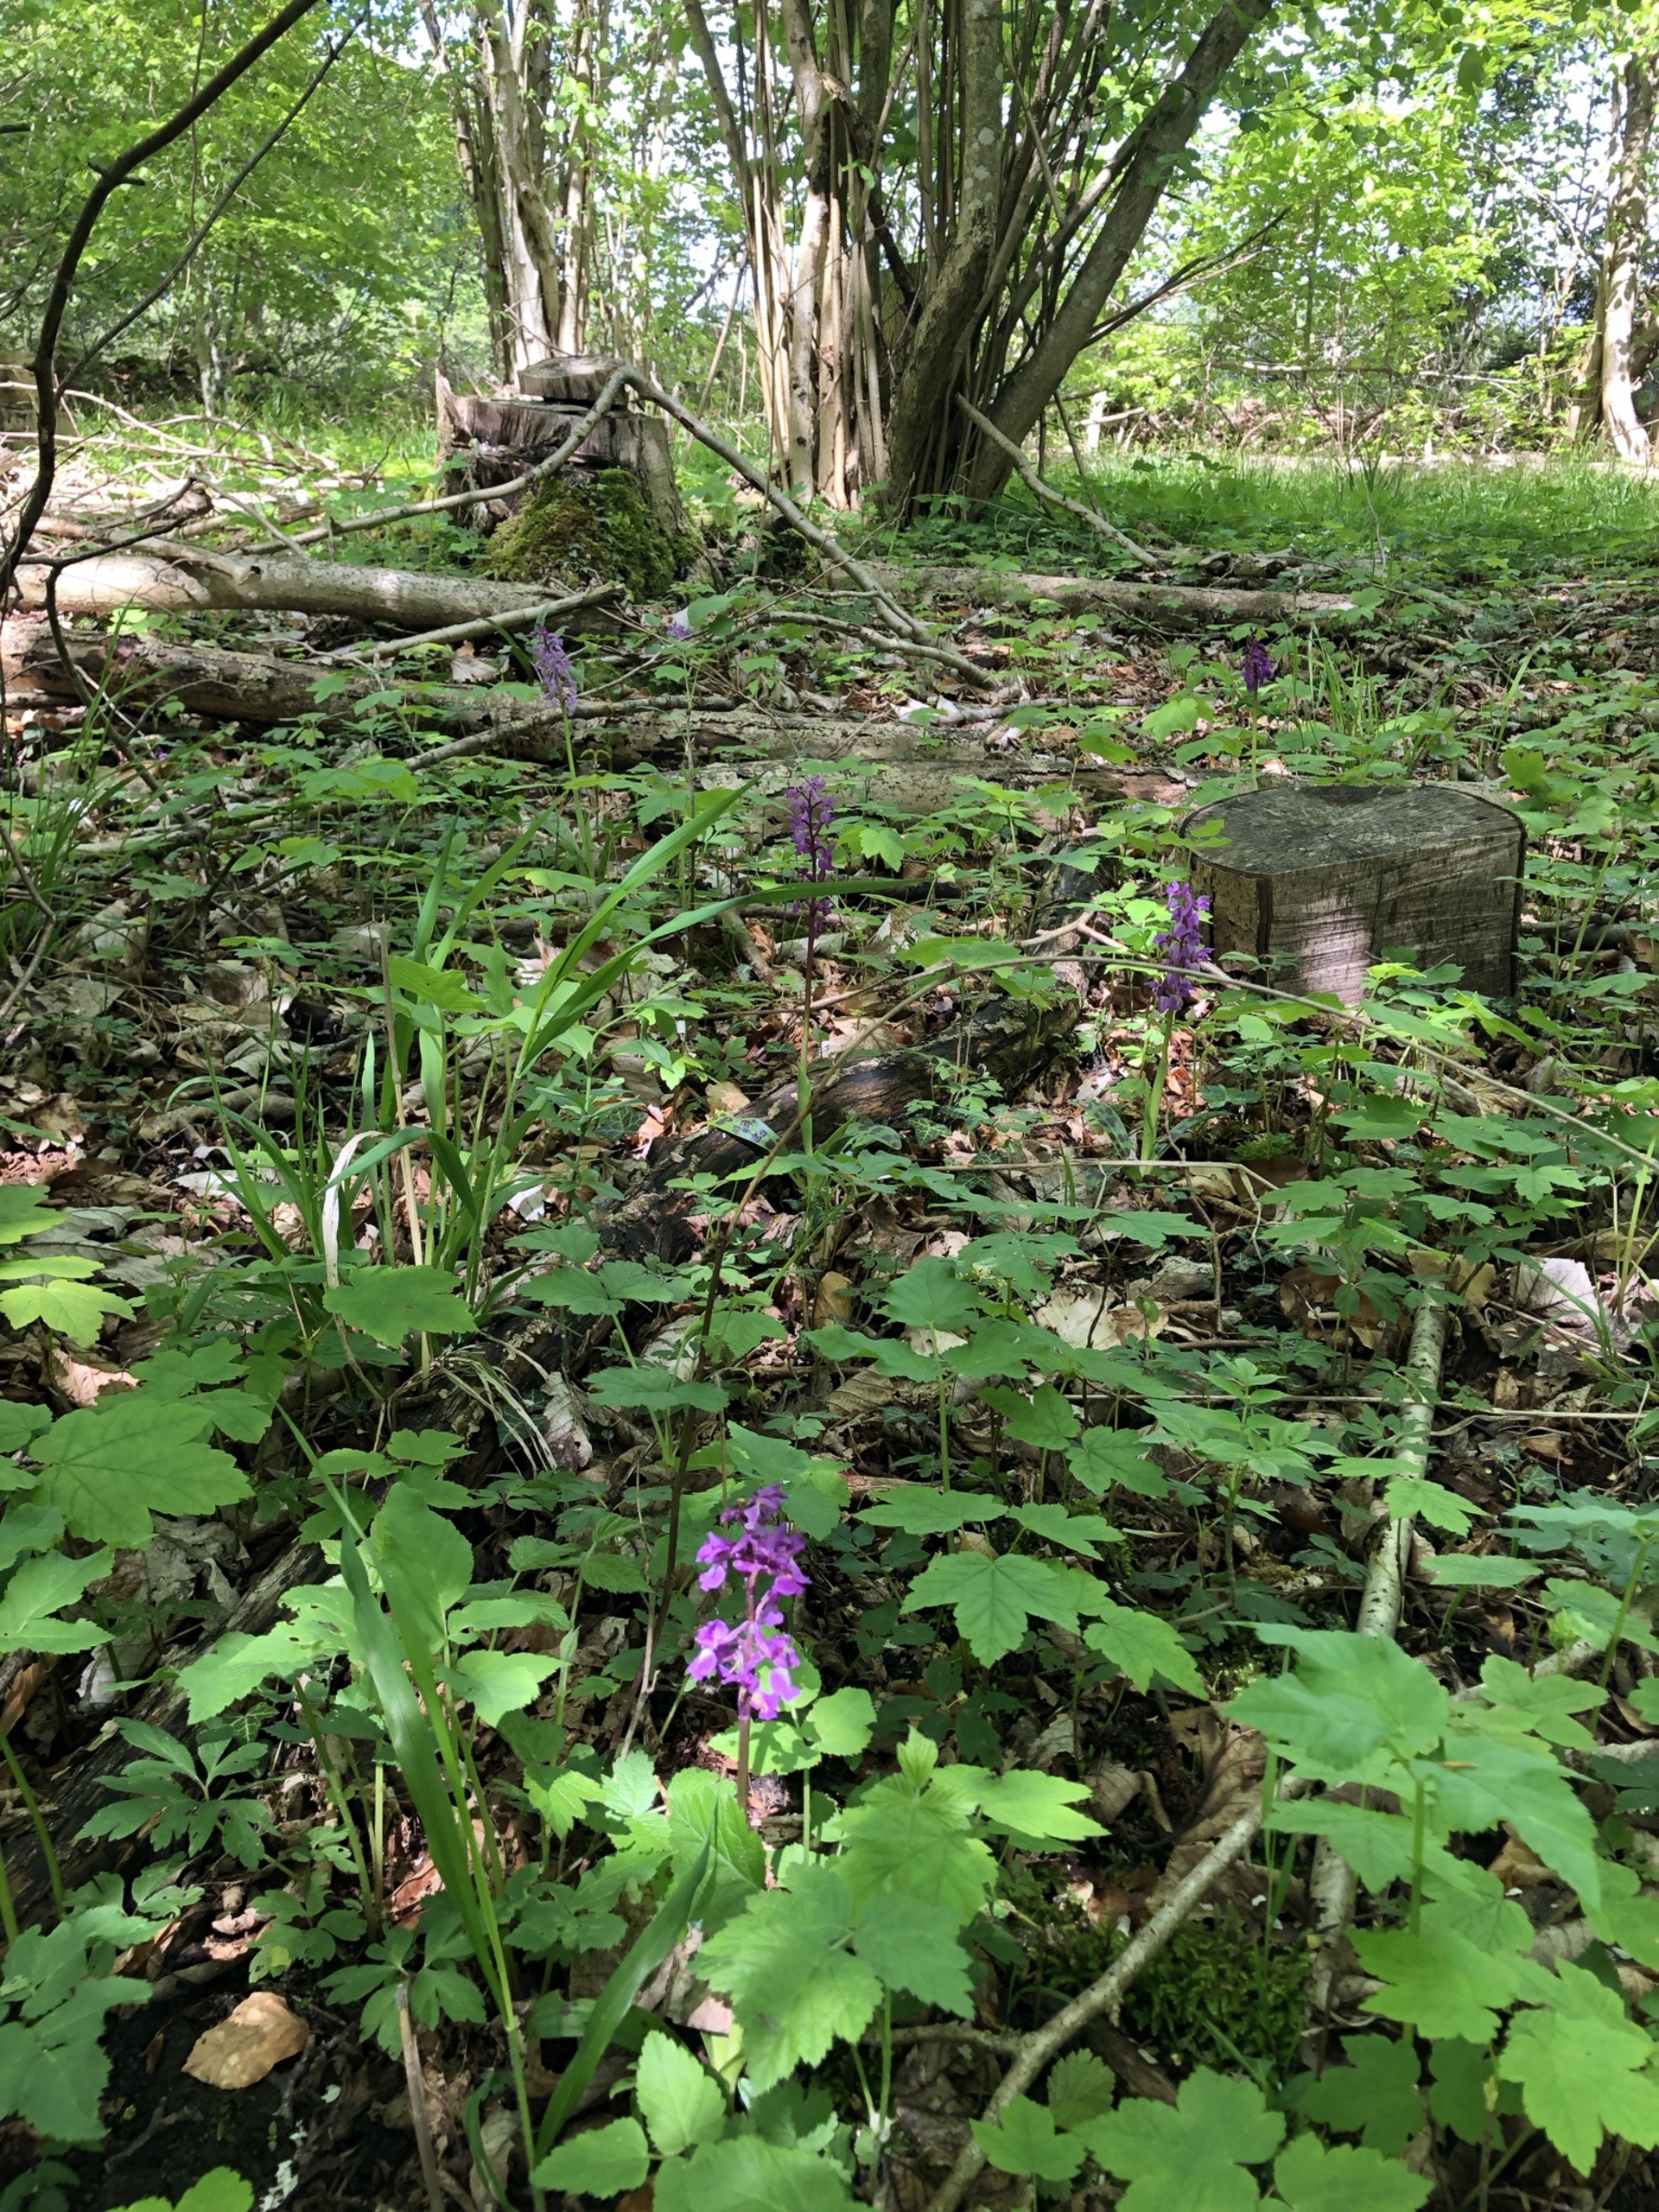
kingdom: Plantae
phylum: Tracheophyta
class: Liliopsida
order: Asparagales
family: Orchidaceae
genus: Orchis
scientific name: Orchis mascula
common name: Tyndakset gøgeurt
